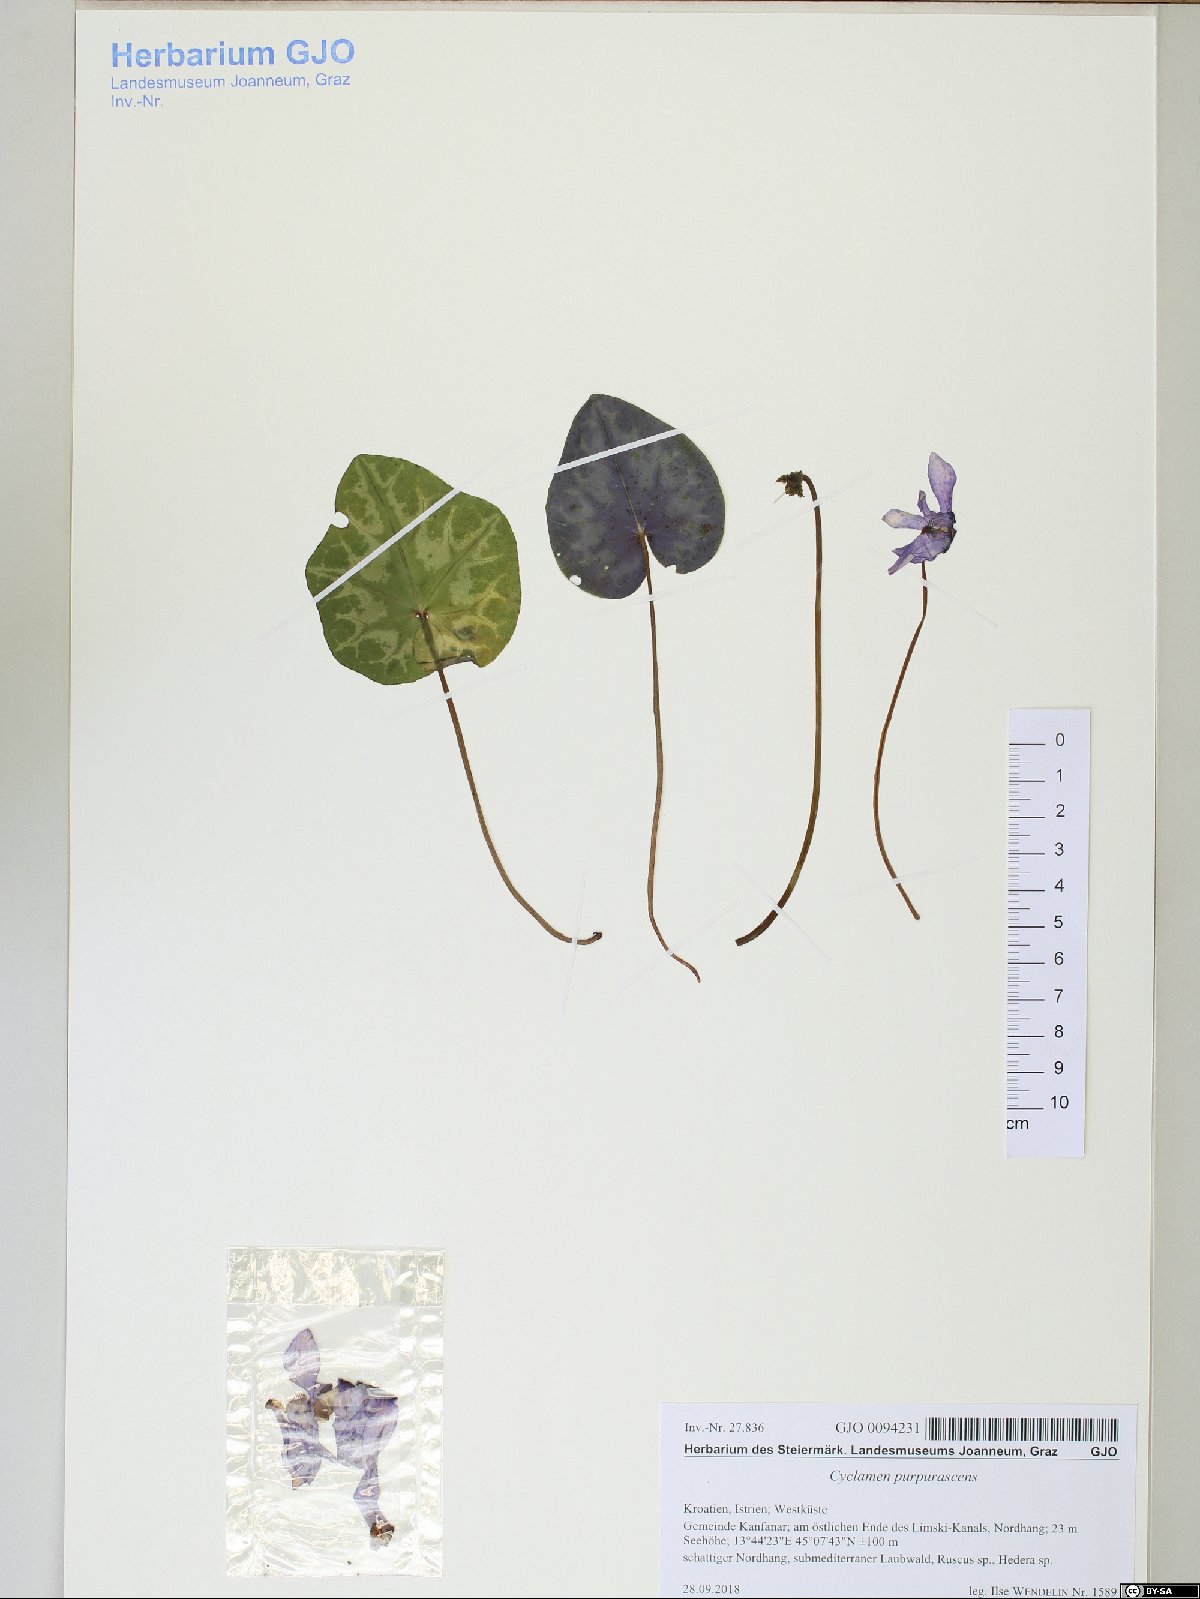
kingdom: Plantae
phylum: Tracheophyta
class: Magnoliopsida
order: Ericales
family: Primulaceae
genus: Cyclamen
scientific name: Cyclamen purpurascens
